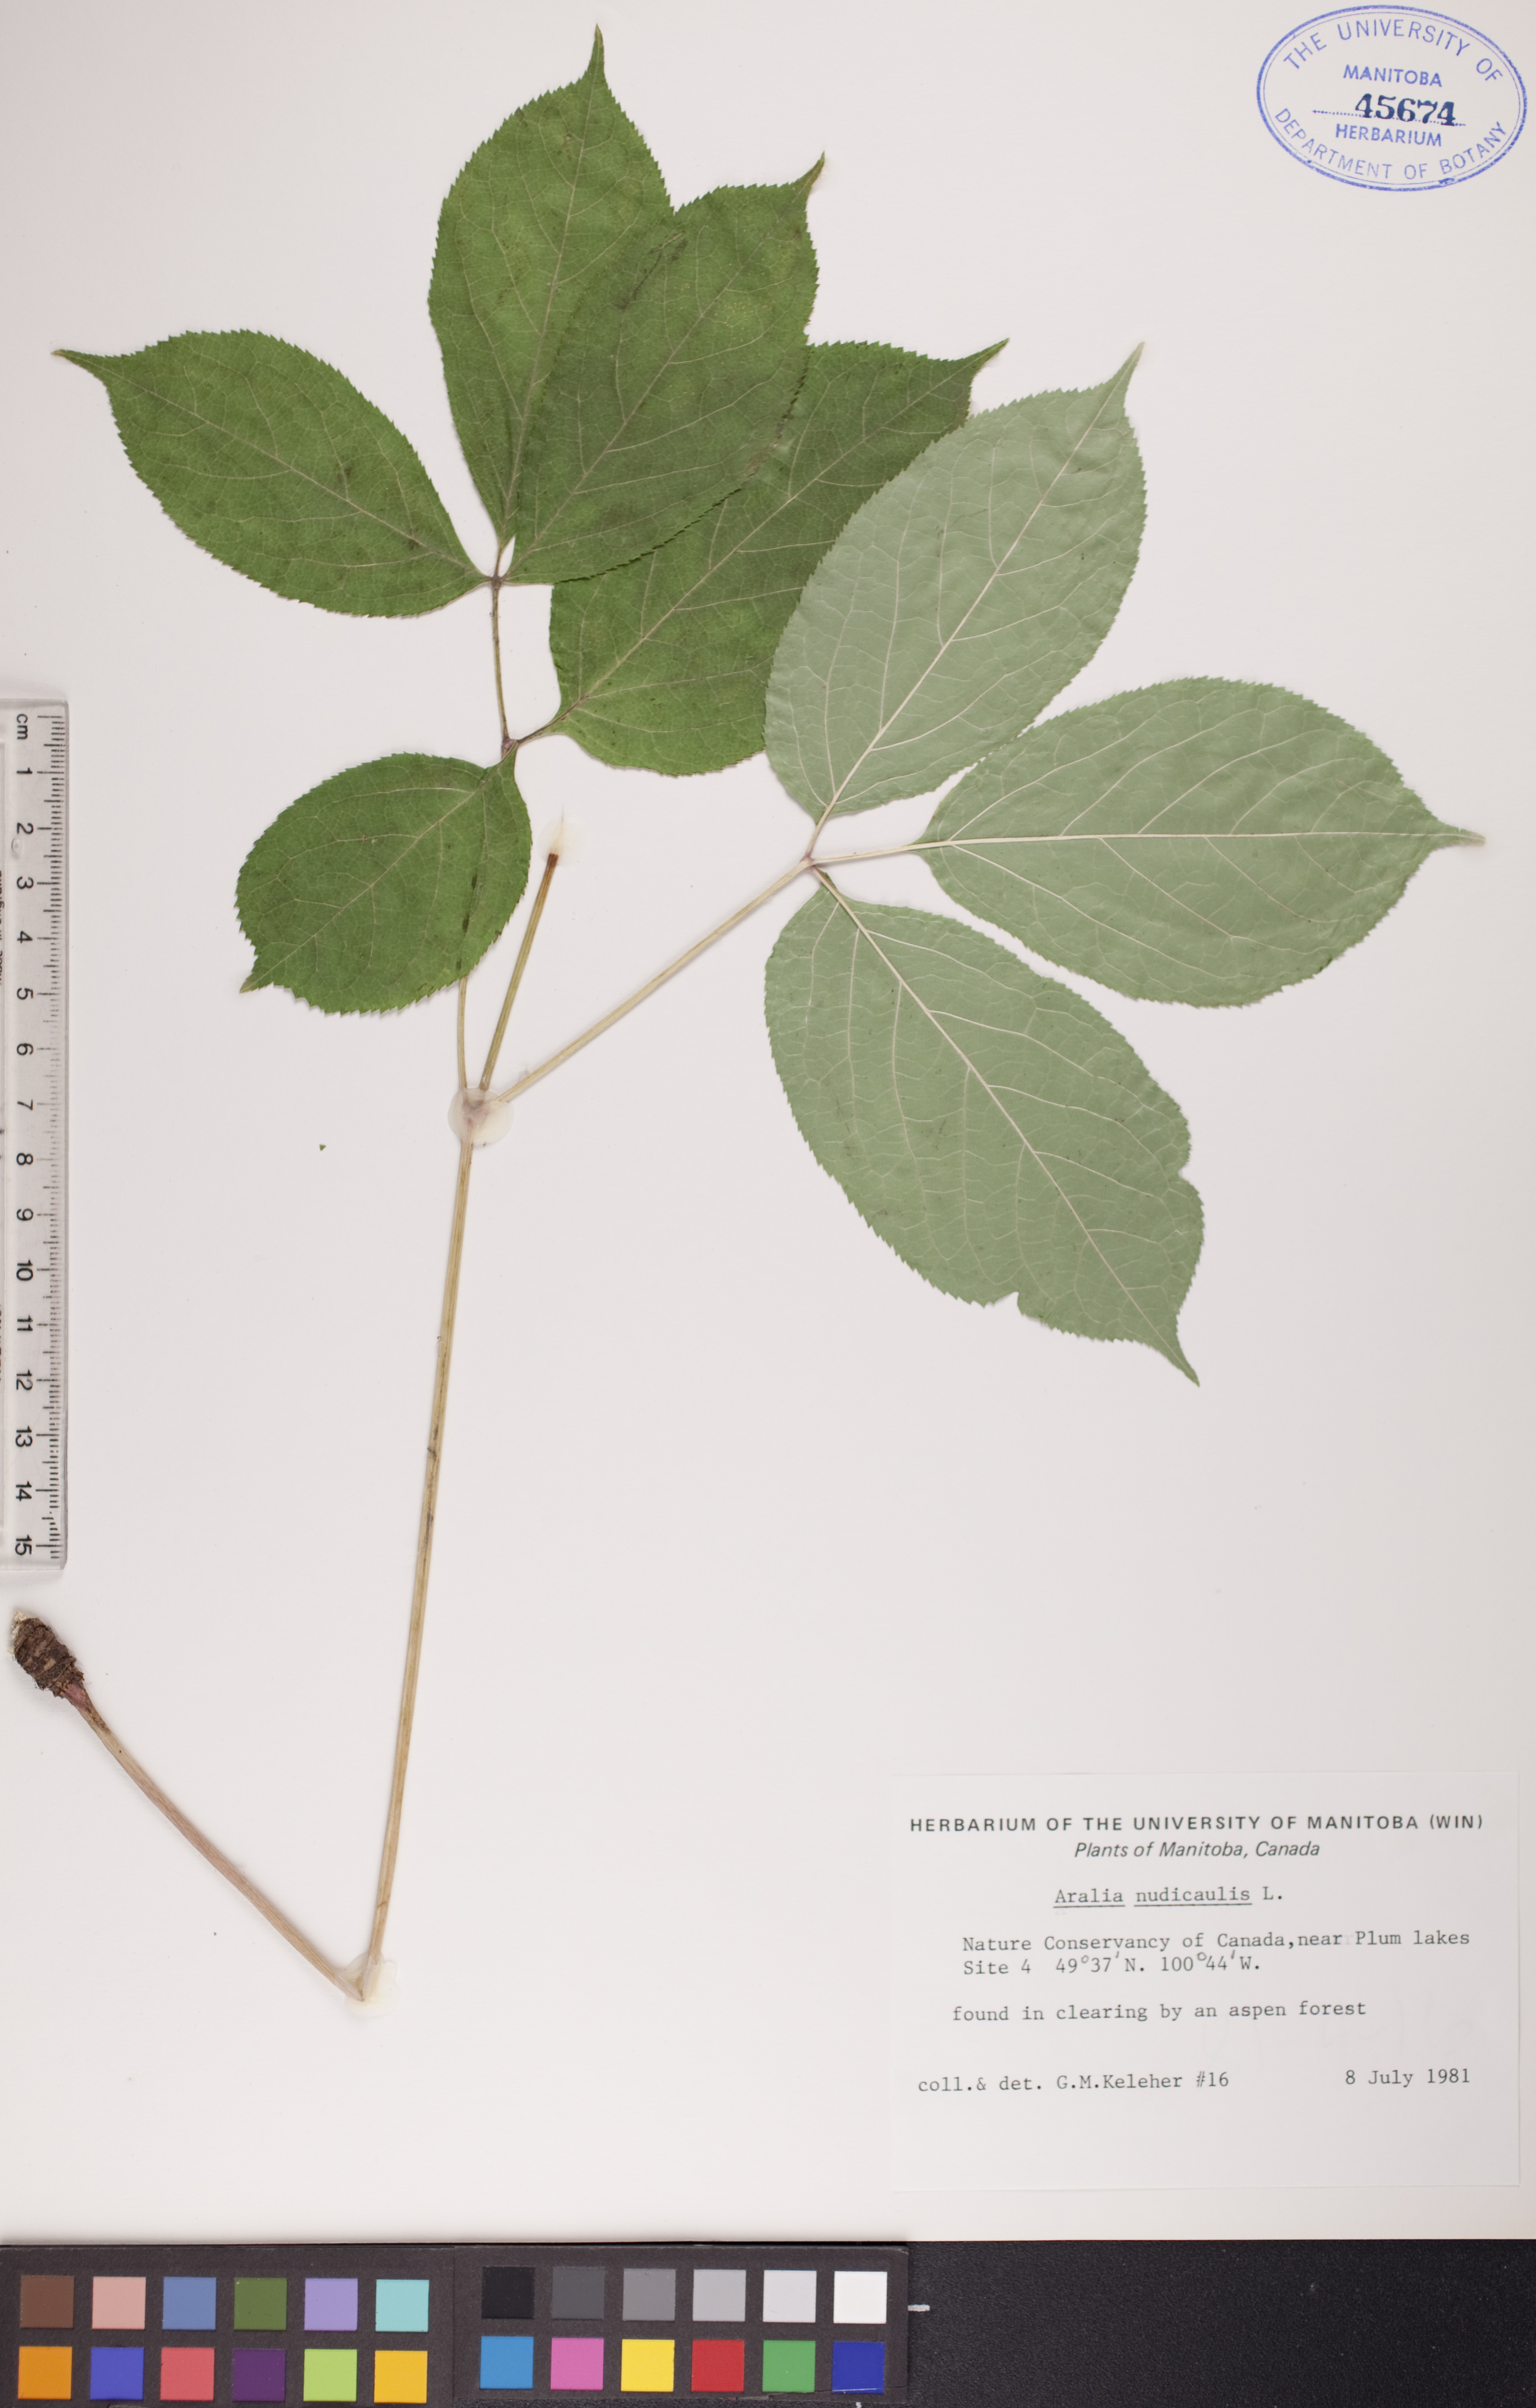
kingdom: Plantae
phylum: Tracheophyta
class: Magnoliopsida
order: Apiales
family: Araliaceae
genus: Aralia
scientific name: Aralia nudicaulis
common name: Wild sarsaparilla
